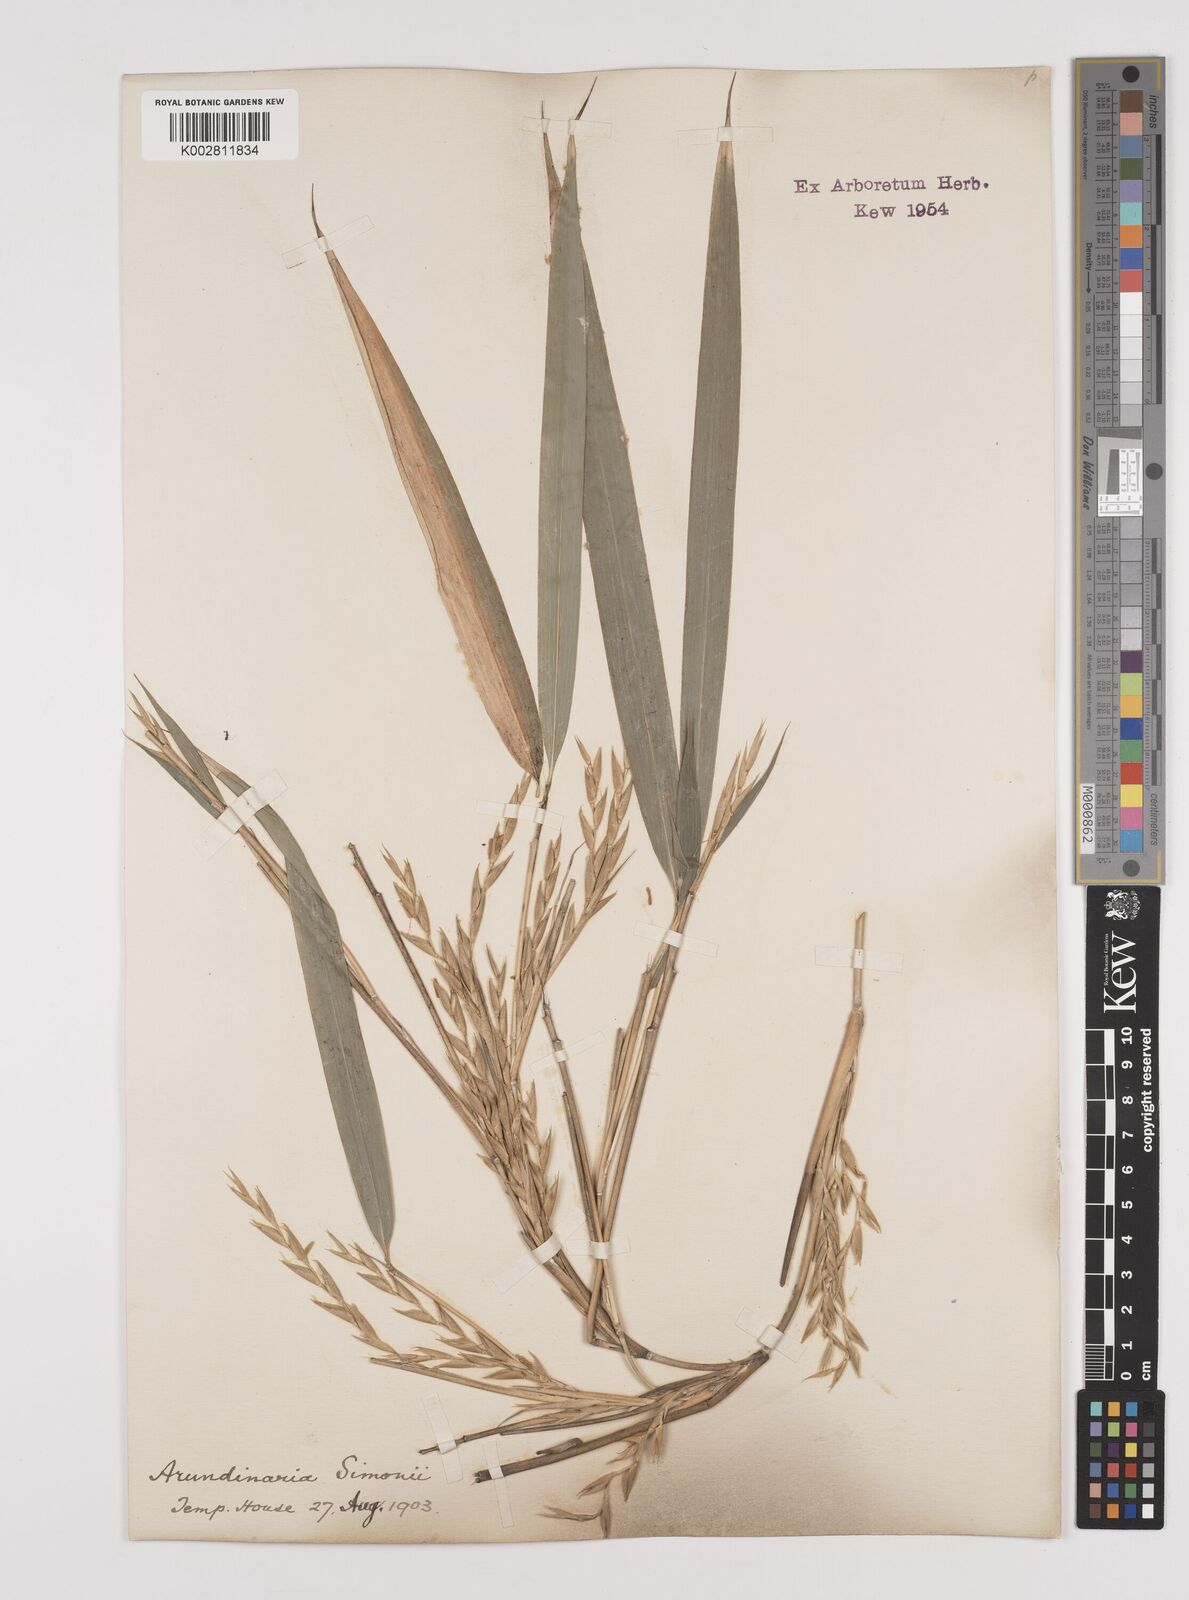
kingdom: Plantae
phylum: Tracheophyta
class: Liliopsida
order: Poales
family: Poaceae
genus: Pleioblastus
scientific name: Pleioblastus simonii
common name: Simon bamboo
